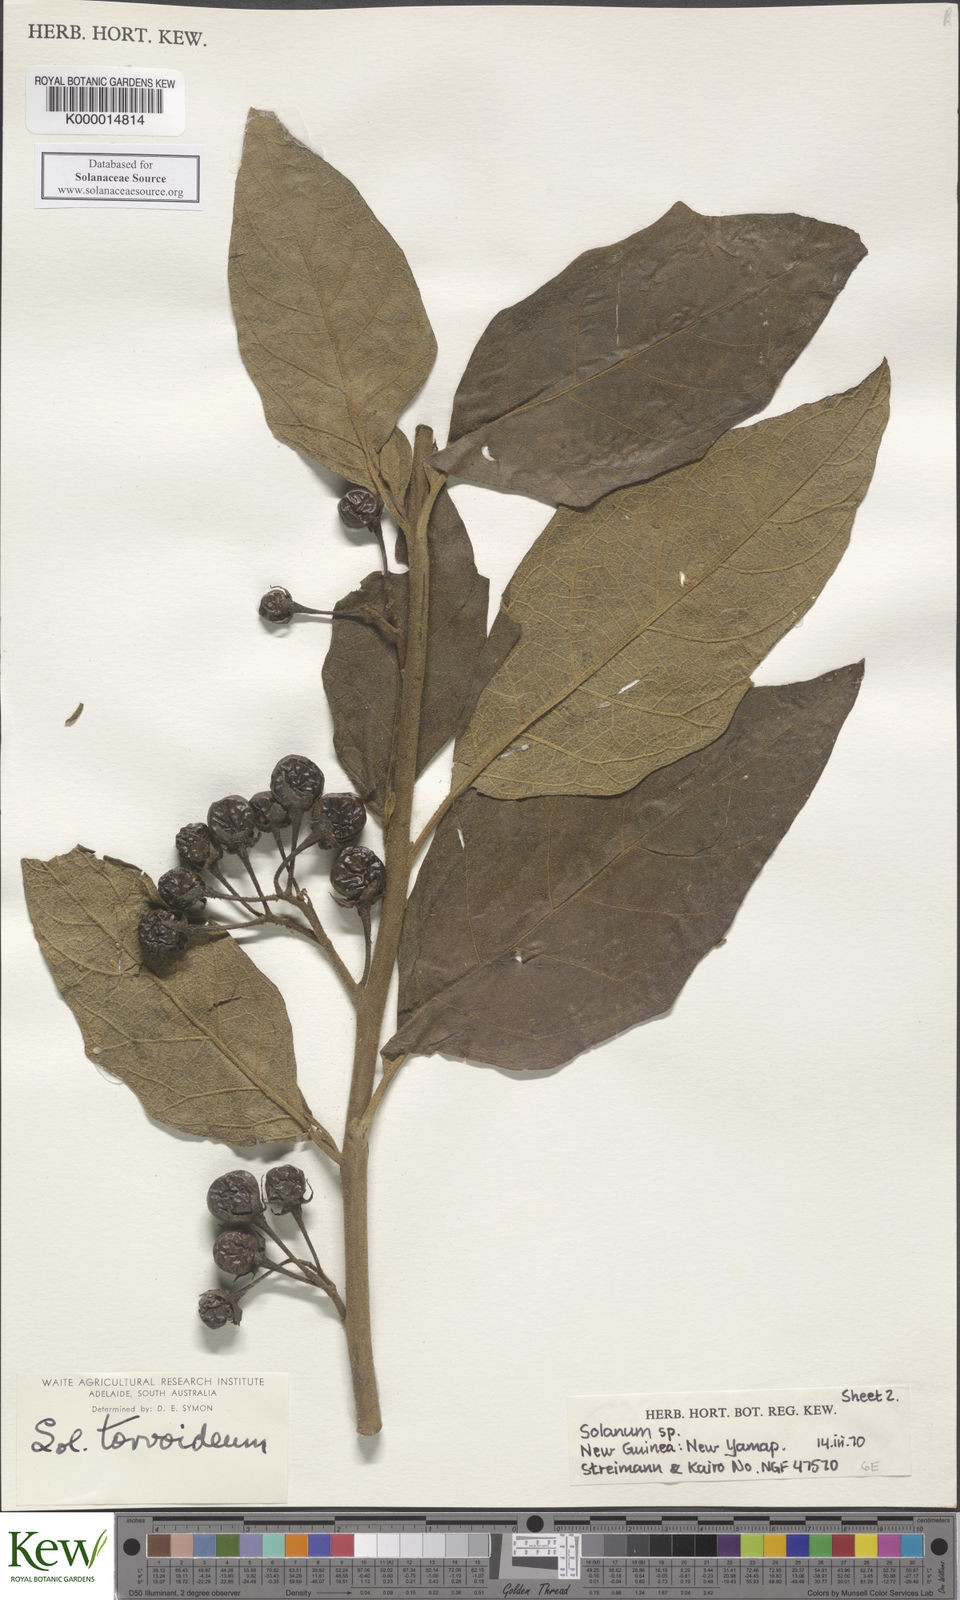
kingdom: Plantae
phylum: Tracheophyta
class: Magnoliopsida
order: Solanales
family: Solanaceae
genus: Solanum
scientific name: Solanum dammerianum
